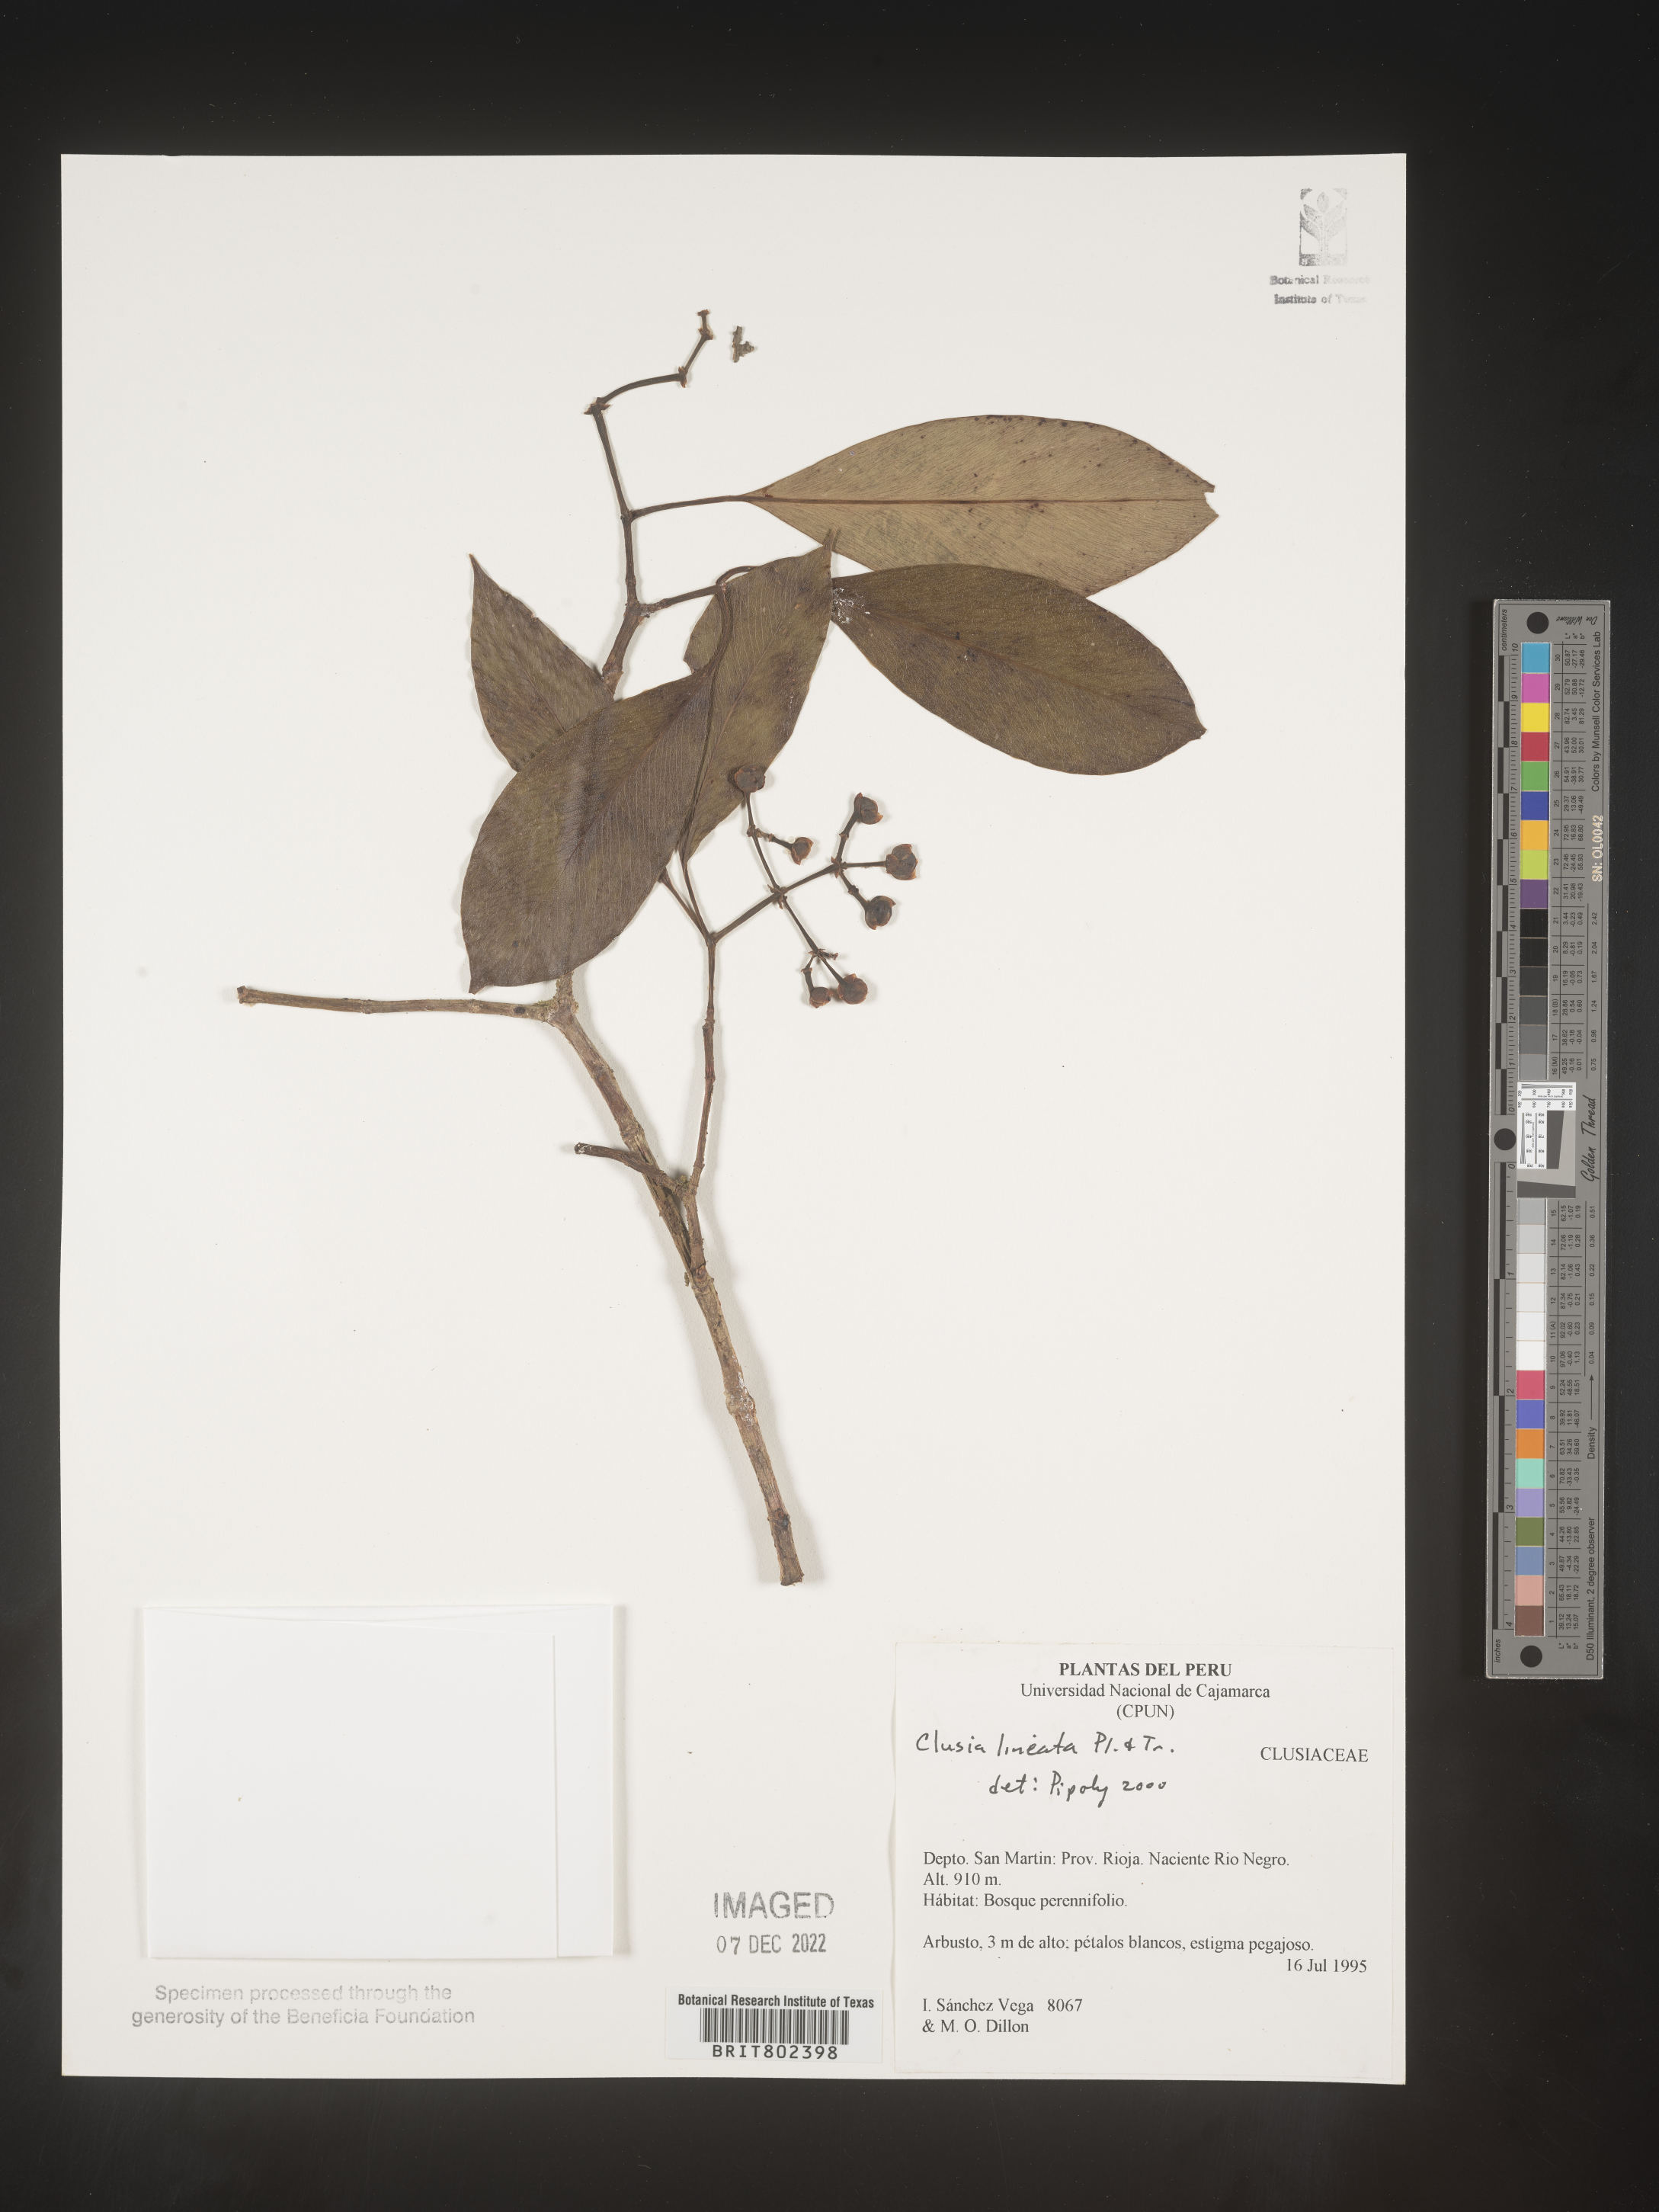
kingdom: Plantae
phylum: Tracheophyta
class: Magnoliopsida
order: Malpighiales
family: Clusiaceae
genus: Clusia
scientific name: Clusia lineata
